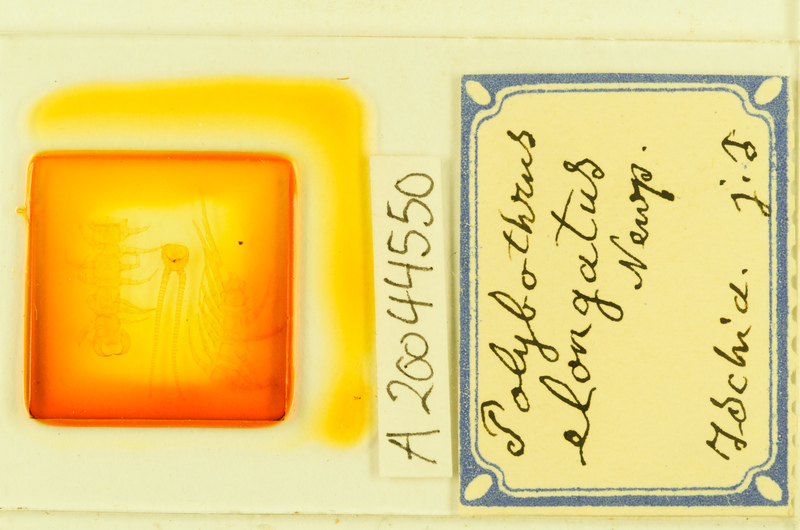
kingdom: Animalia
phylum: Arthropoda
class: Chilopoda
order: Lithobiomorpha
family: Lithobiidae
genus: Polybothrus
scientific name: Polybothrus
